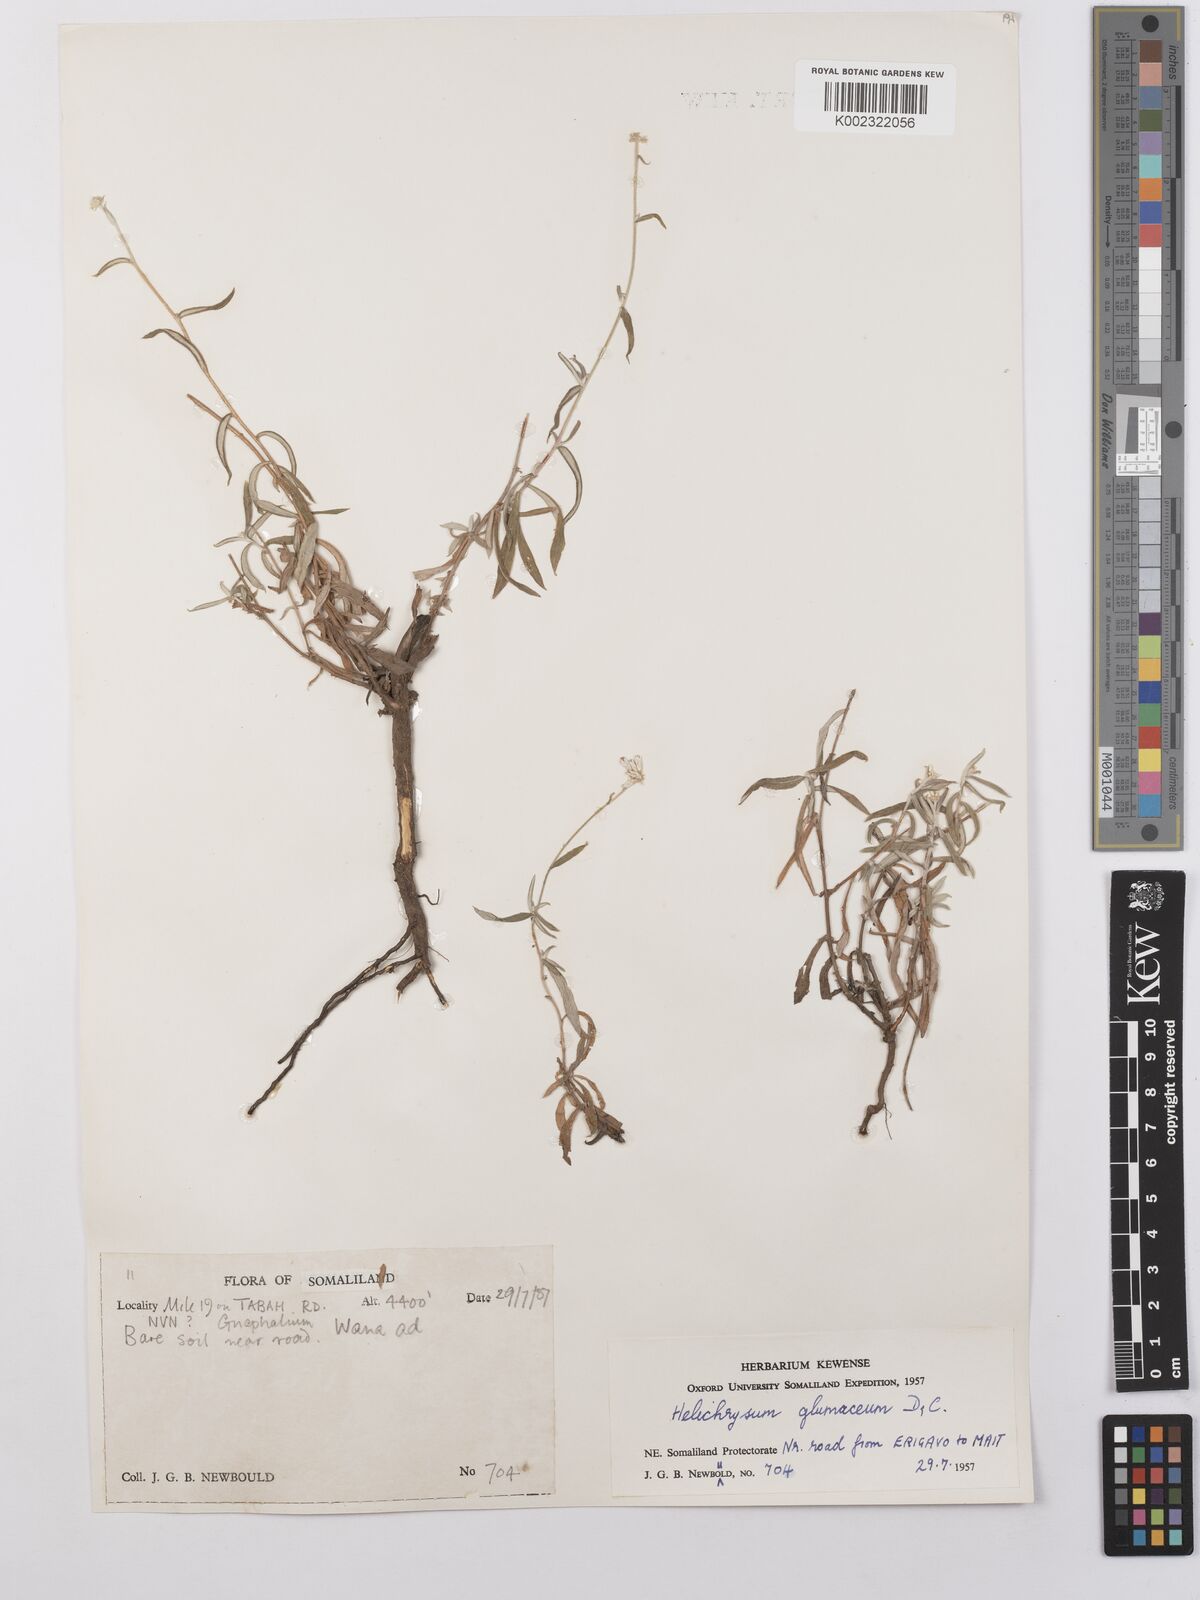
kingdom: Plantae
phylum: Tracheophyta
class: Magnoliopsida
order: Asterales
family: Asteraceae
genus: Helichrysum
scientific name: Helichrysum glumaceum
